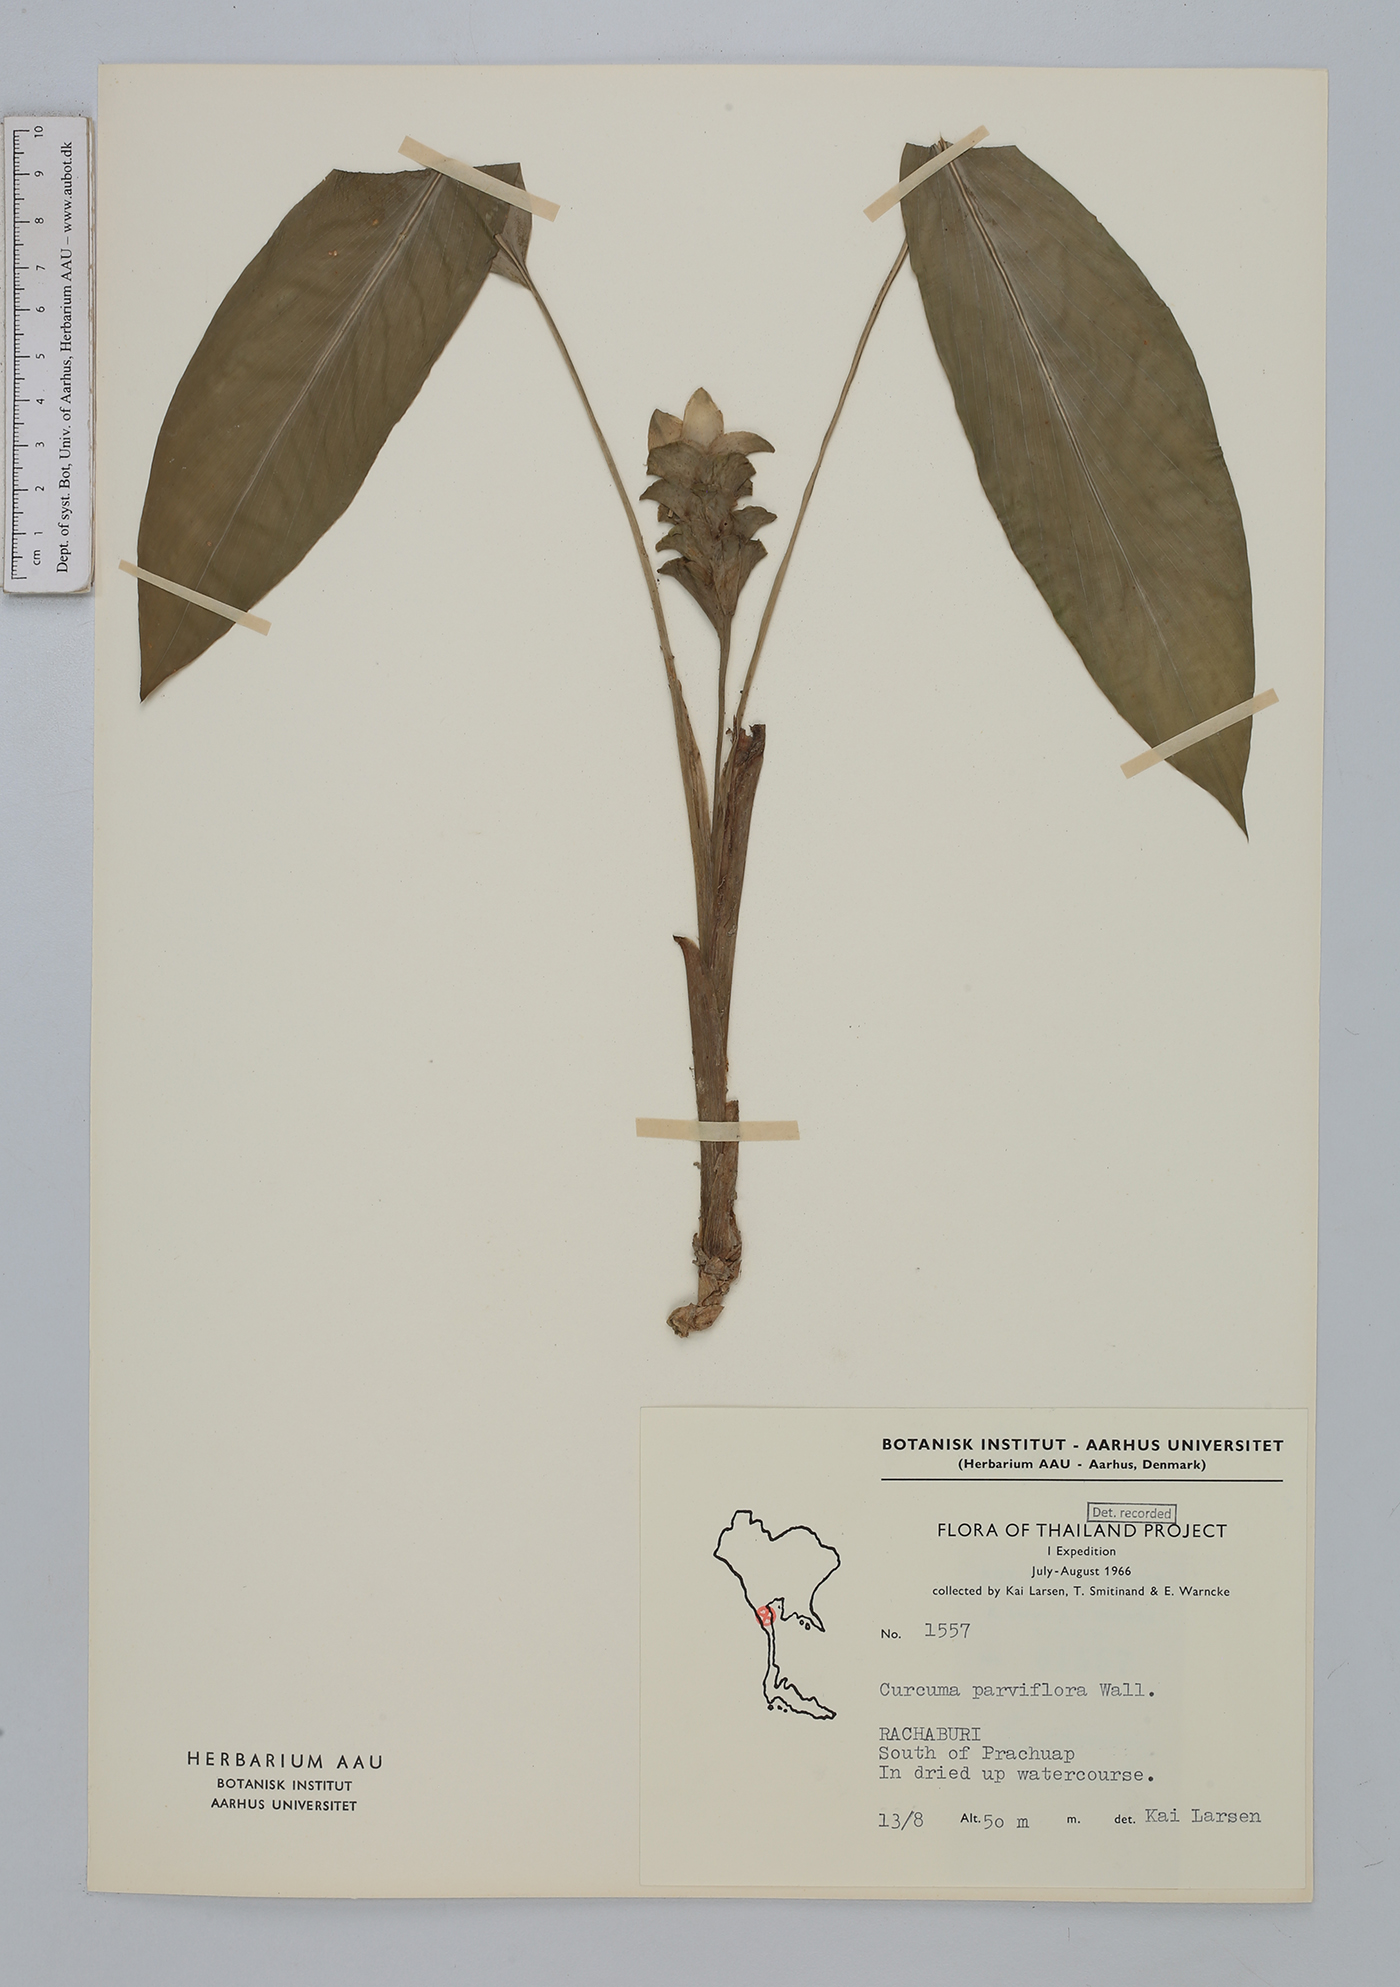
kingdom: Plantae
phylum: Tracheophyta
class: Liliopsida
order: Zingiberales
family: Zingiberaceae
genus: Curcuma
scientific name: Curcuma parviflora
